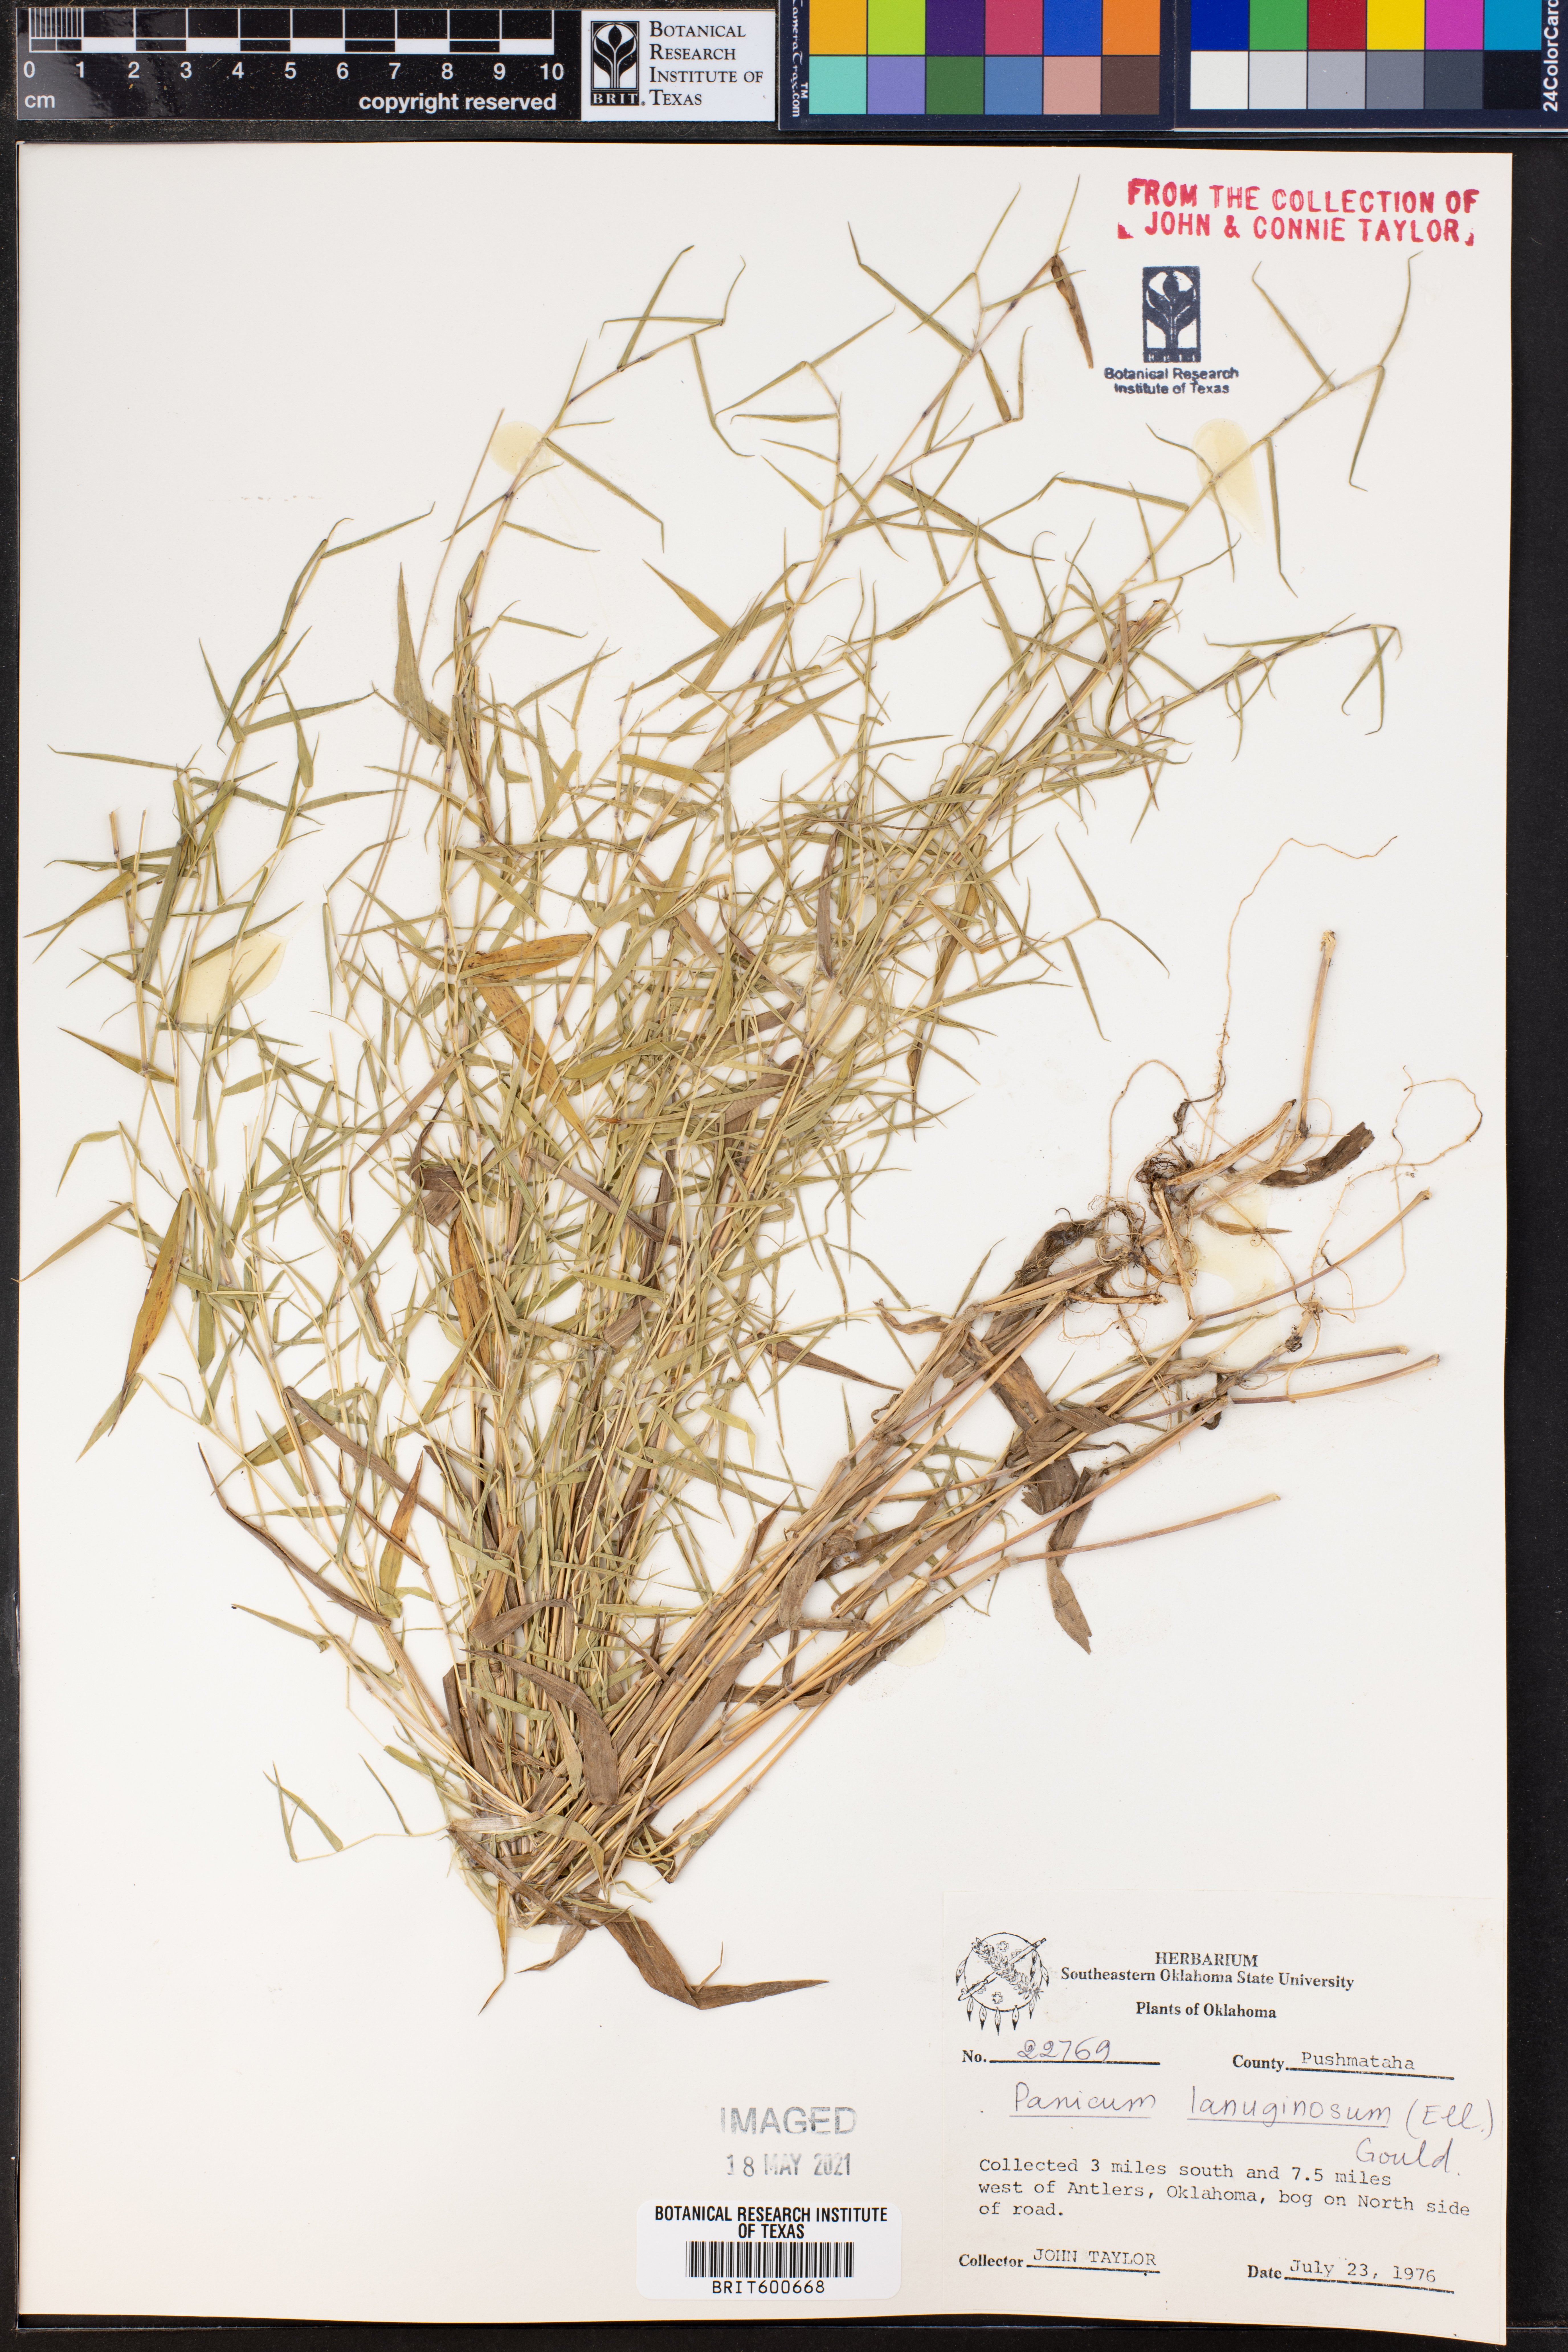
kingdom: Plantae
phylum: Tracheophyta
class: Liliopsida
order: Poales
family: Poaceae
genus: Dichanthelium
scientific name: Dichanthelium lanuginosum
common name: Woolly panicgrass
